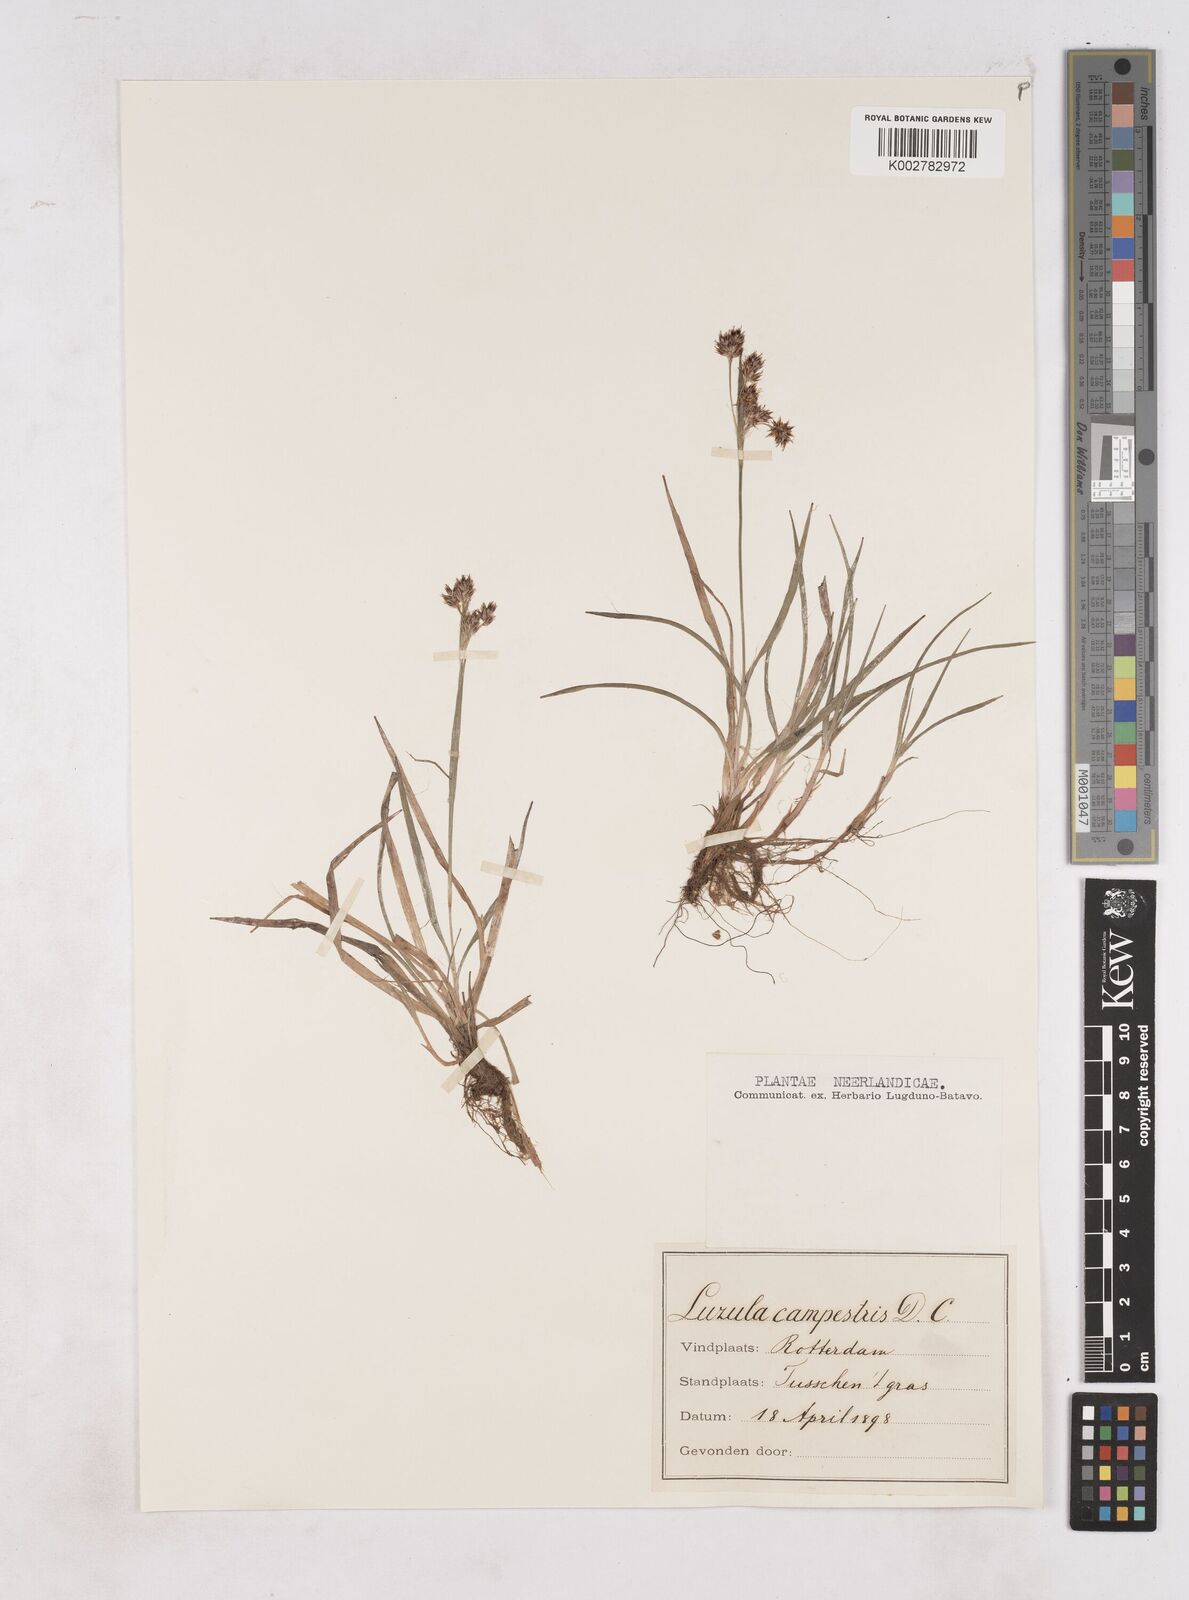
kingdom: Plantae
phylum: Tracheophyta
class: Liliopsida
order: Poales
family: Juncaceae
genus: Luzula
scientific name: Luzula campestris
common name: Field wood-rush
